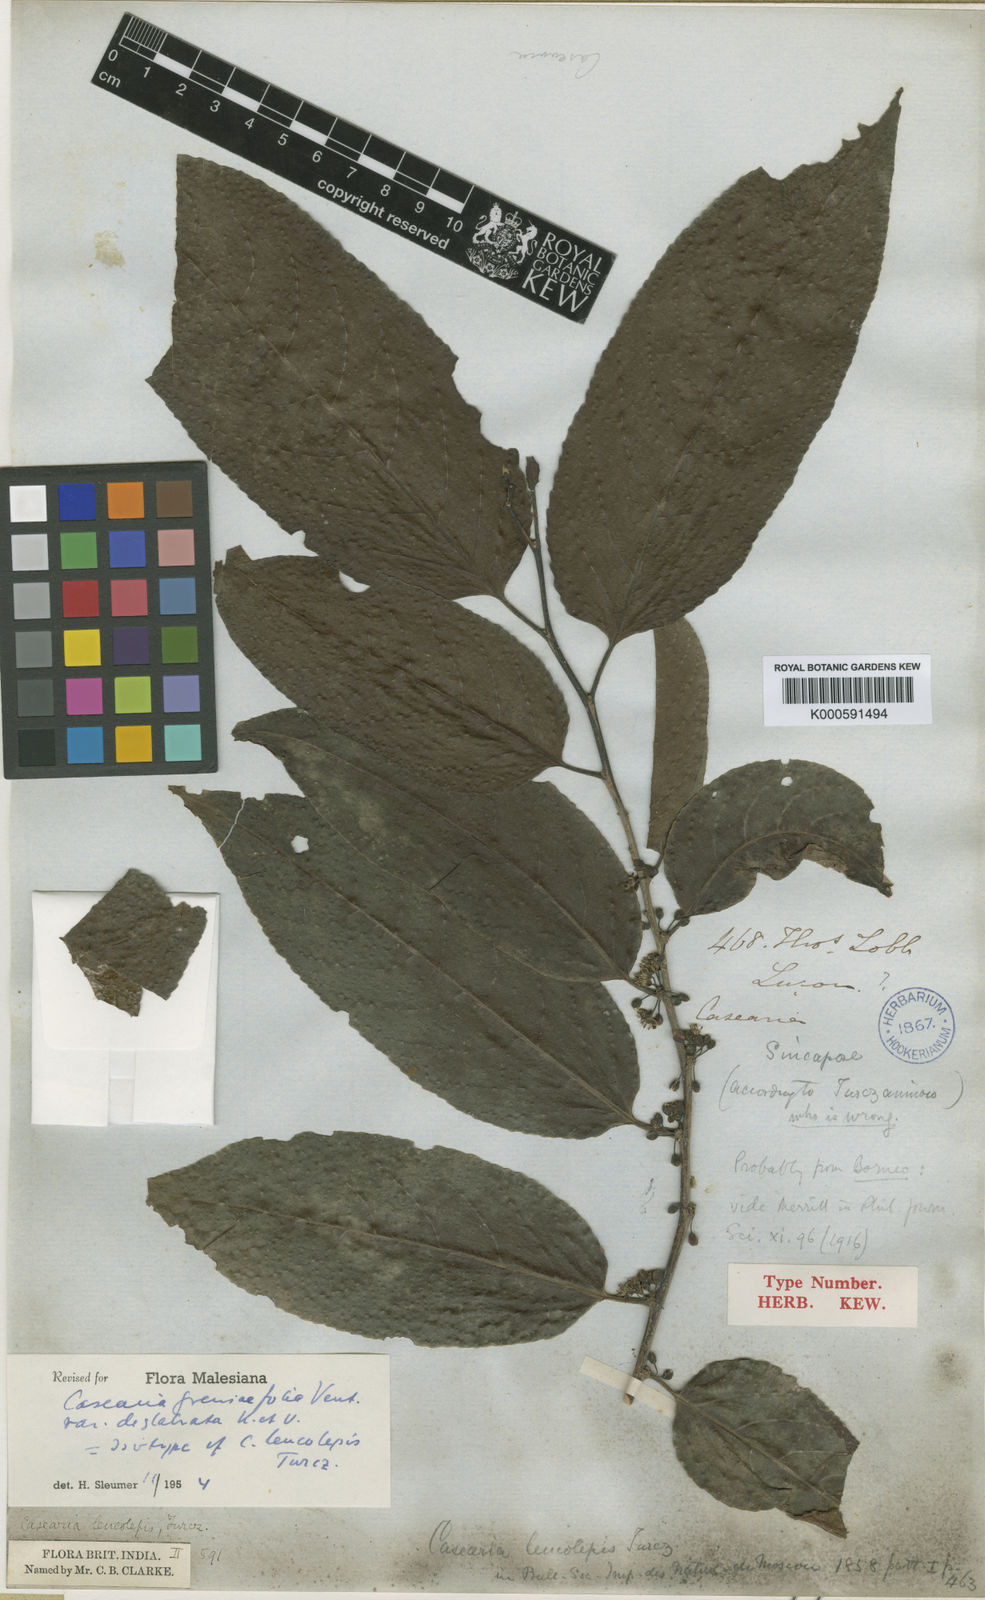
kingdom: Plantae
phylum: Tracheophyta
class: Magnoliopsida
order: Malpighiales
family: Salicaceae
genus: Casearia
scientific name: Casearia grewiifolia
